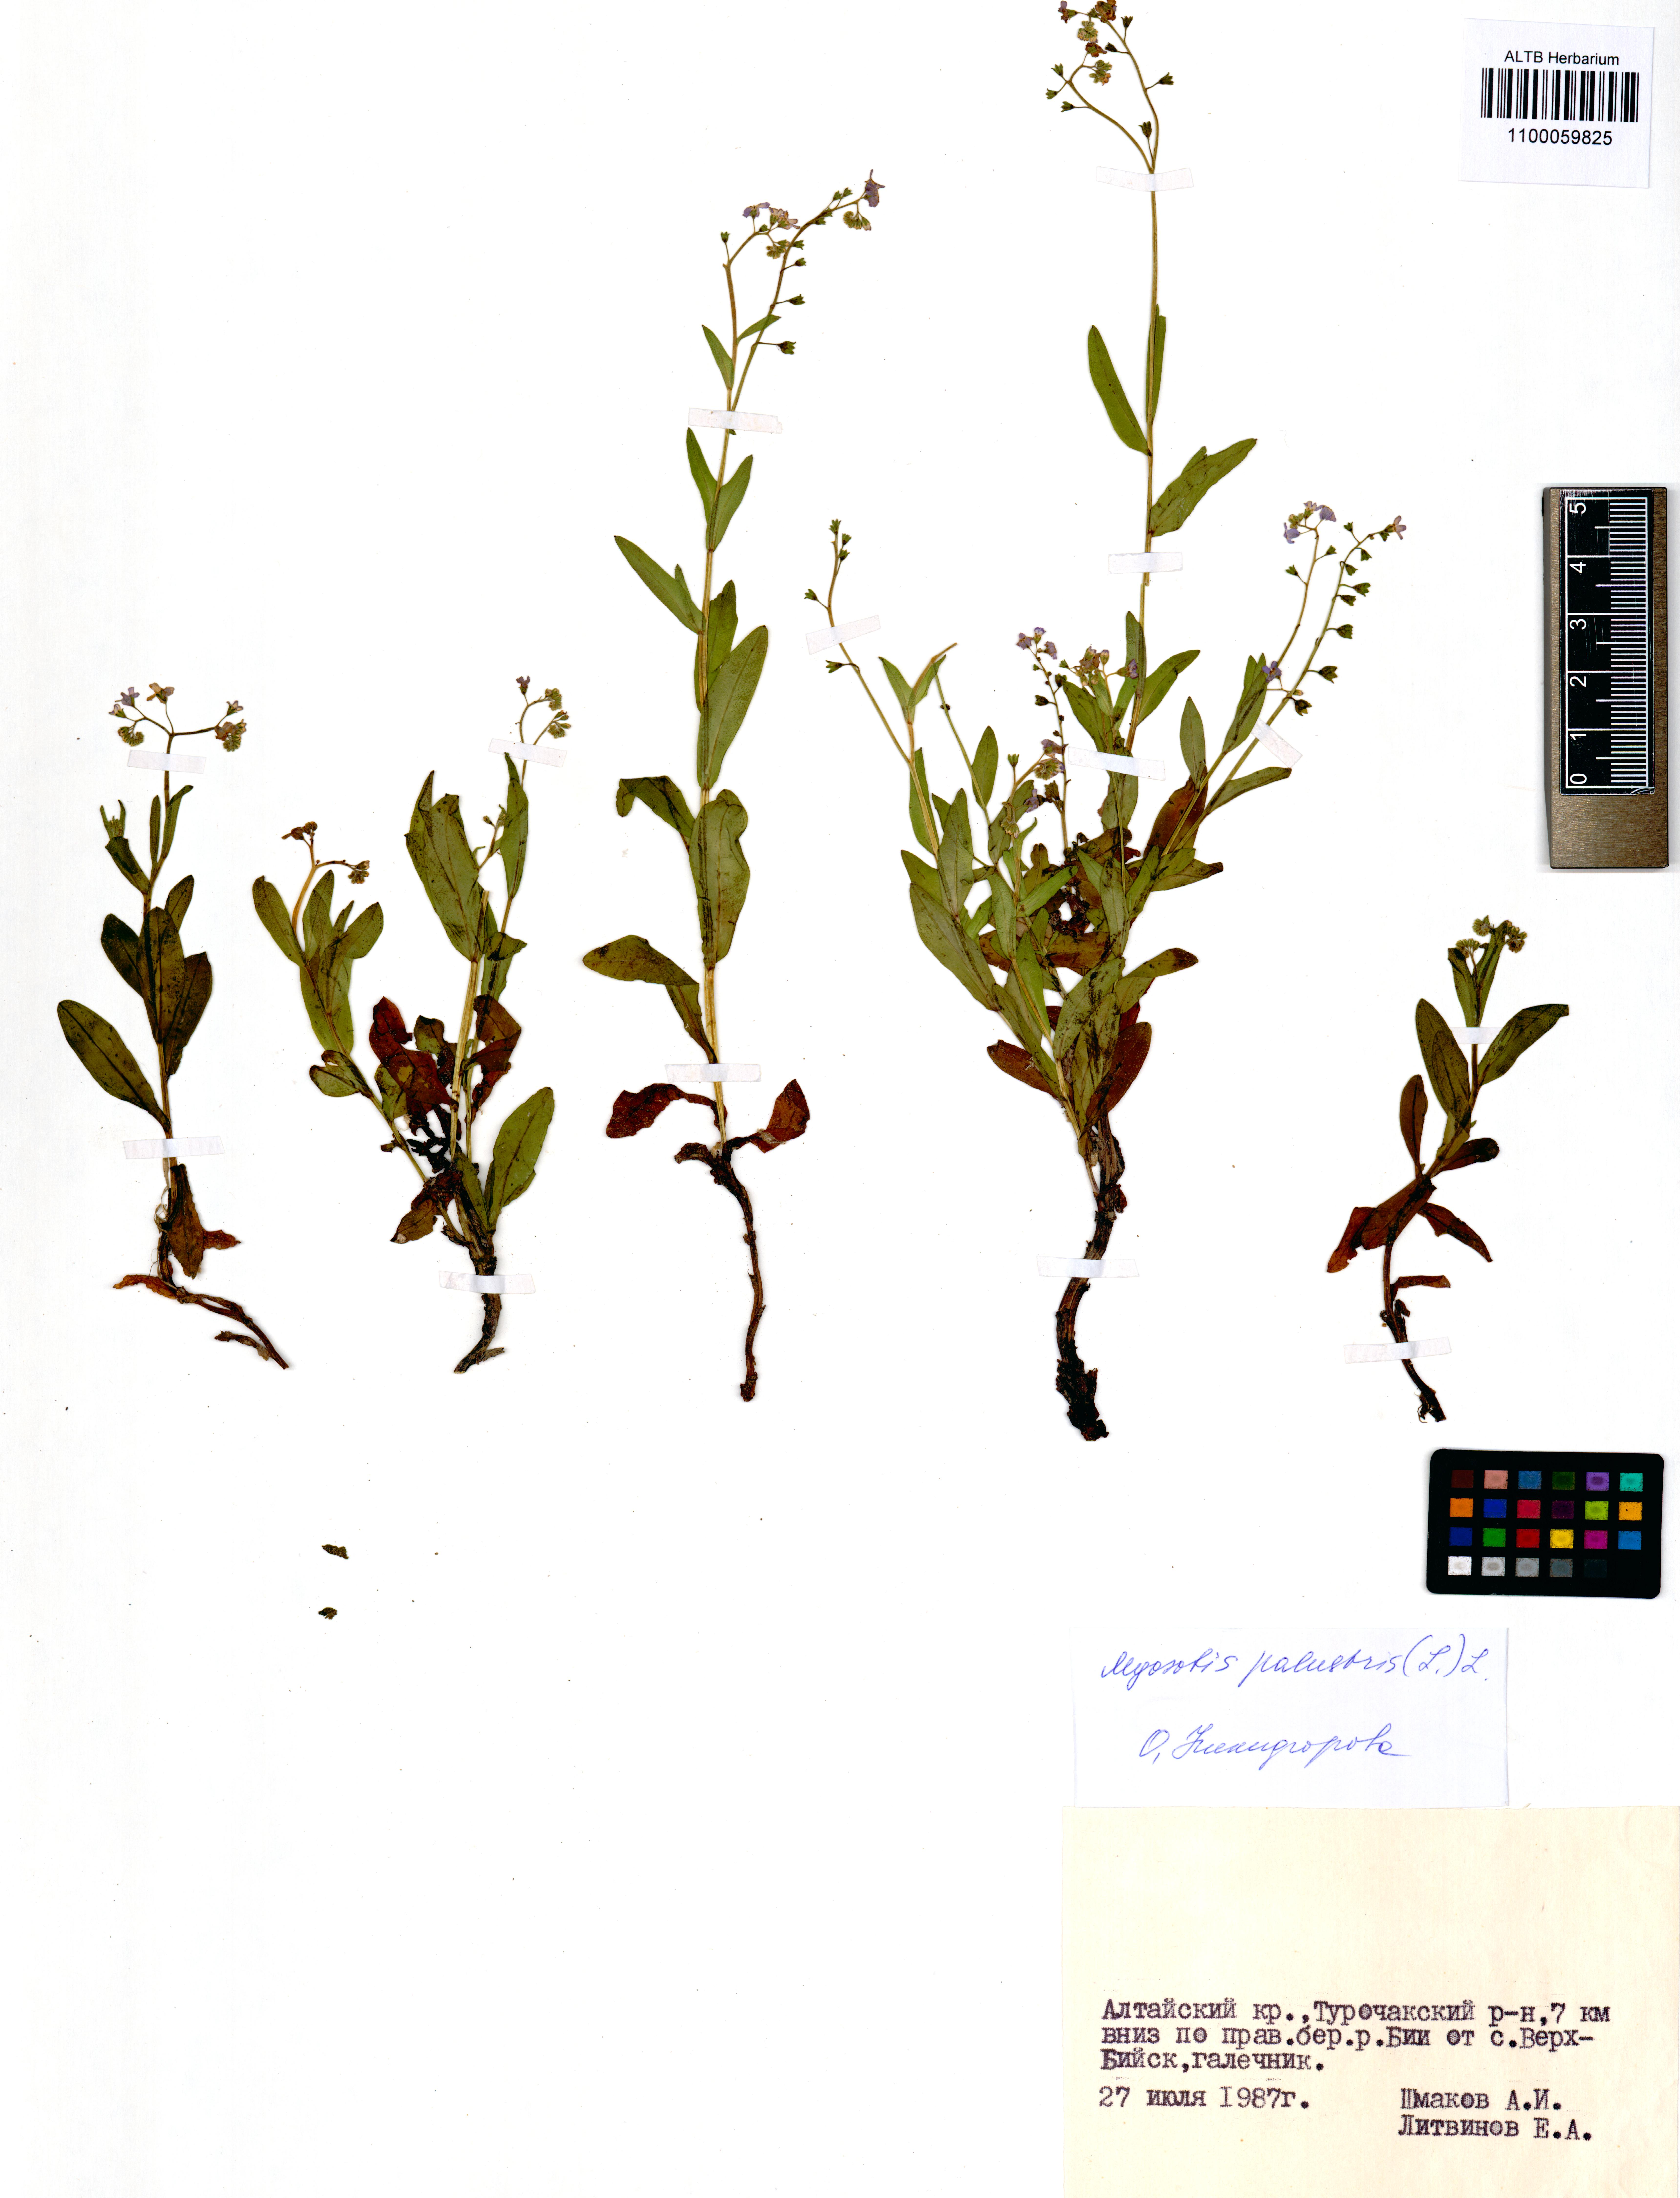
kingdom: Plantae
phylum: Tracheophyta
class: Magnoliopsida
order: Boraginales
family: Boraginaceae
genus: Myosotis
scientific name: Myosotis scorpioides
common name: Water forget-me-not
